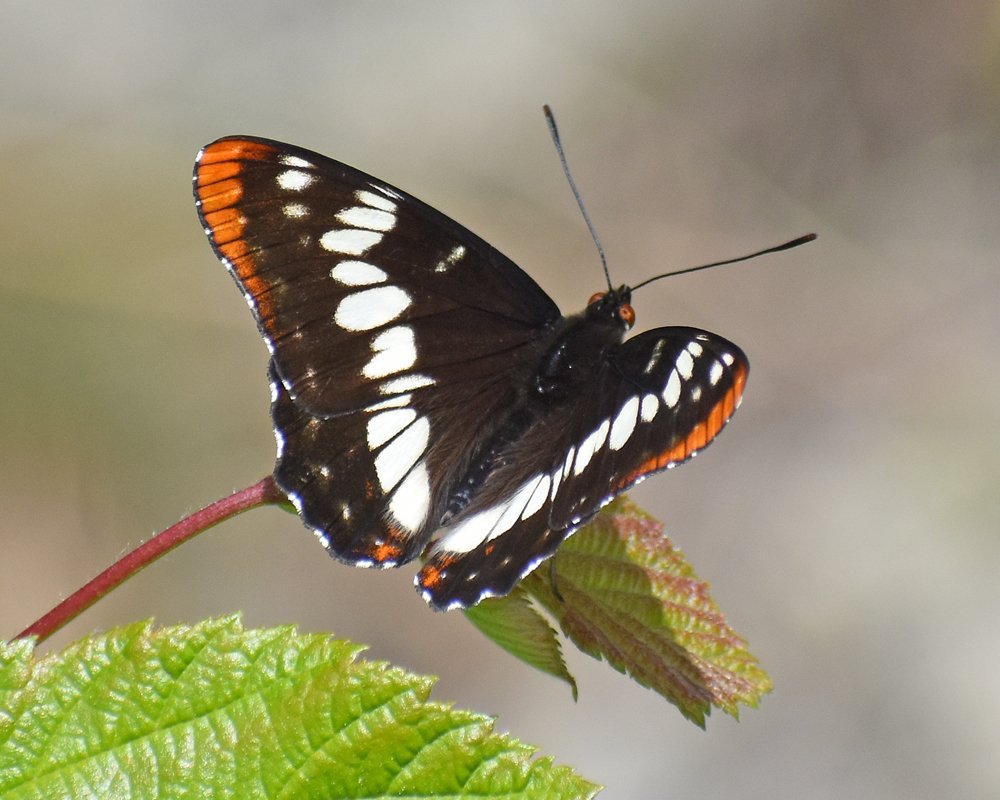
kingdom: Animalia
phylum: Arthropoda
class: Insecta
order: Lepidoptera
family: Nymphalidae
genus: Limenitis
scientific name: Limenitis lorquini
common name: Lorquin's Admiral
